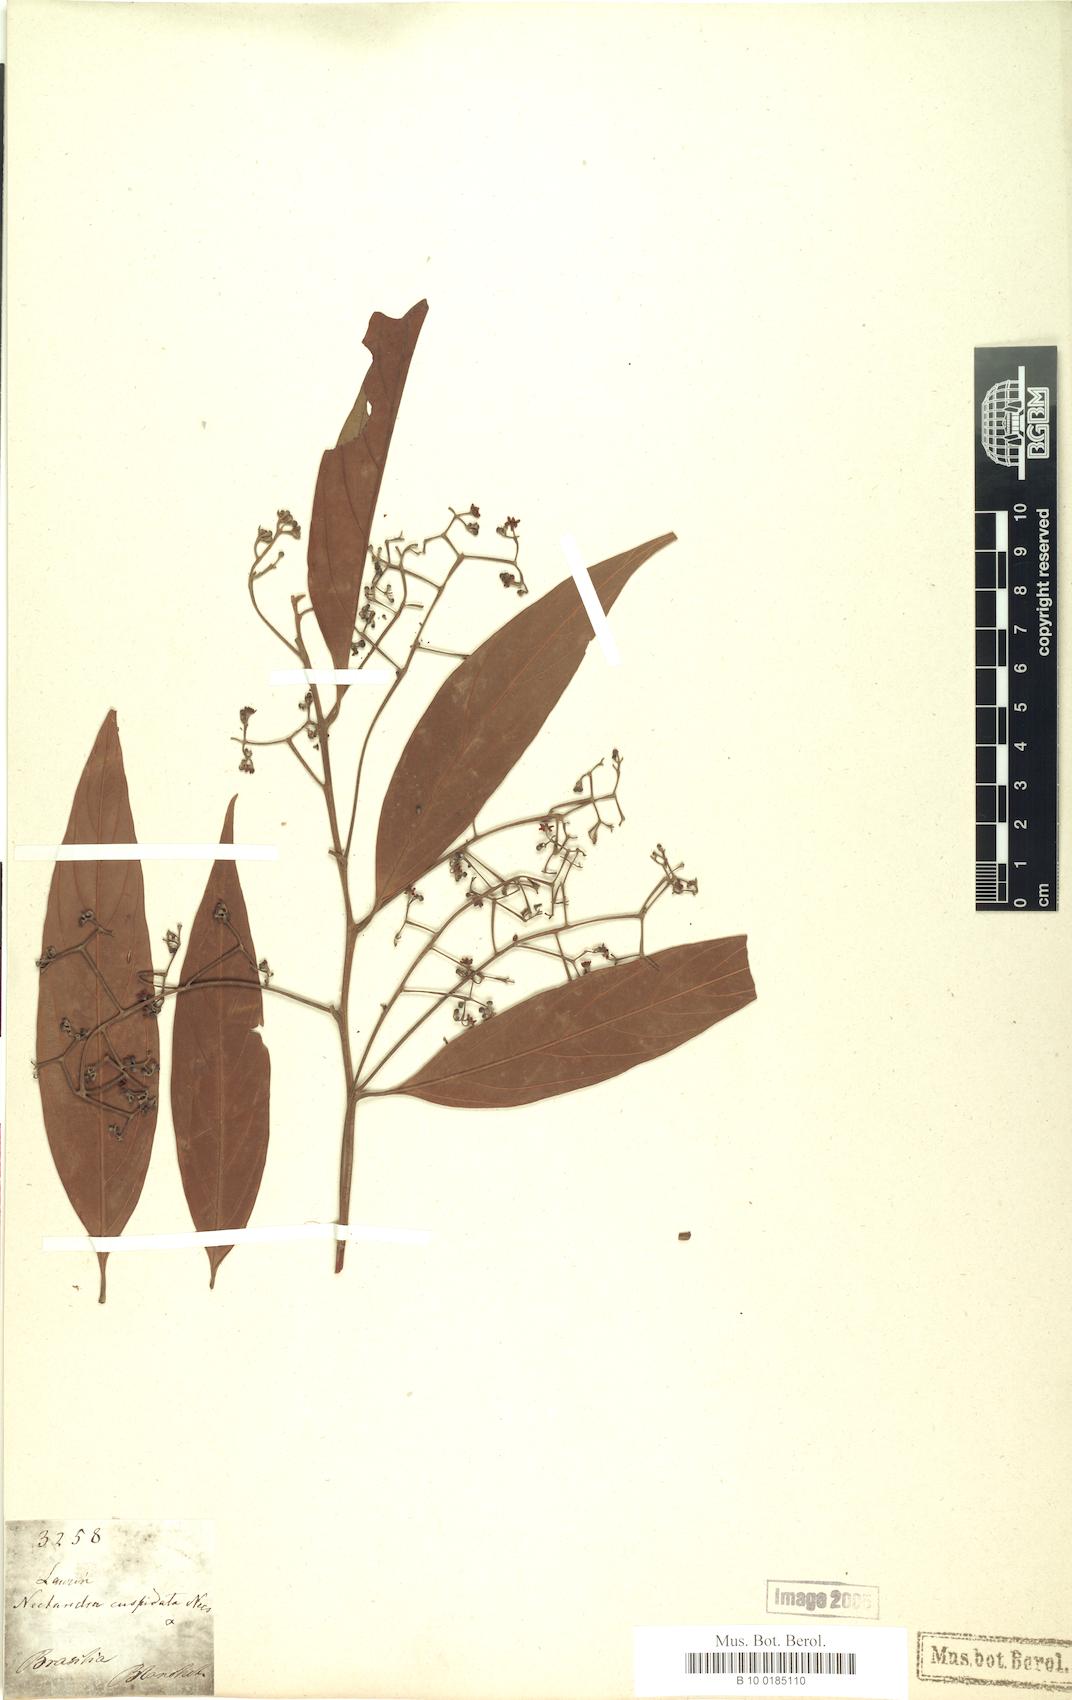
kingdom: Plantae
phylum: Tracheophyta
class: Magnoliopsida
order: Laurales
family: Lauraceae
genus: Nectandra
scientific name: Nectandra cuspidata
